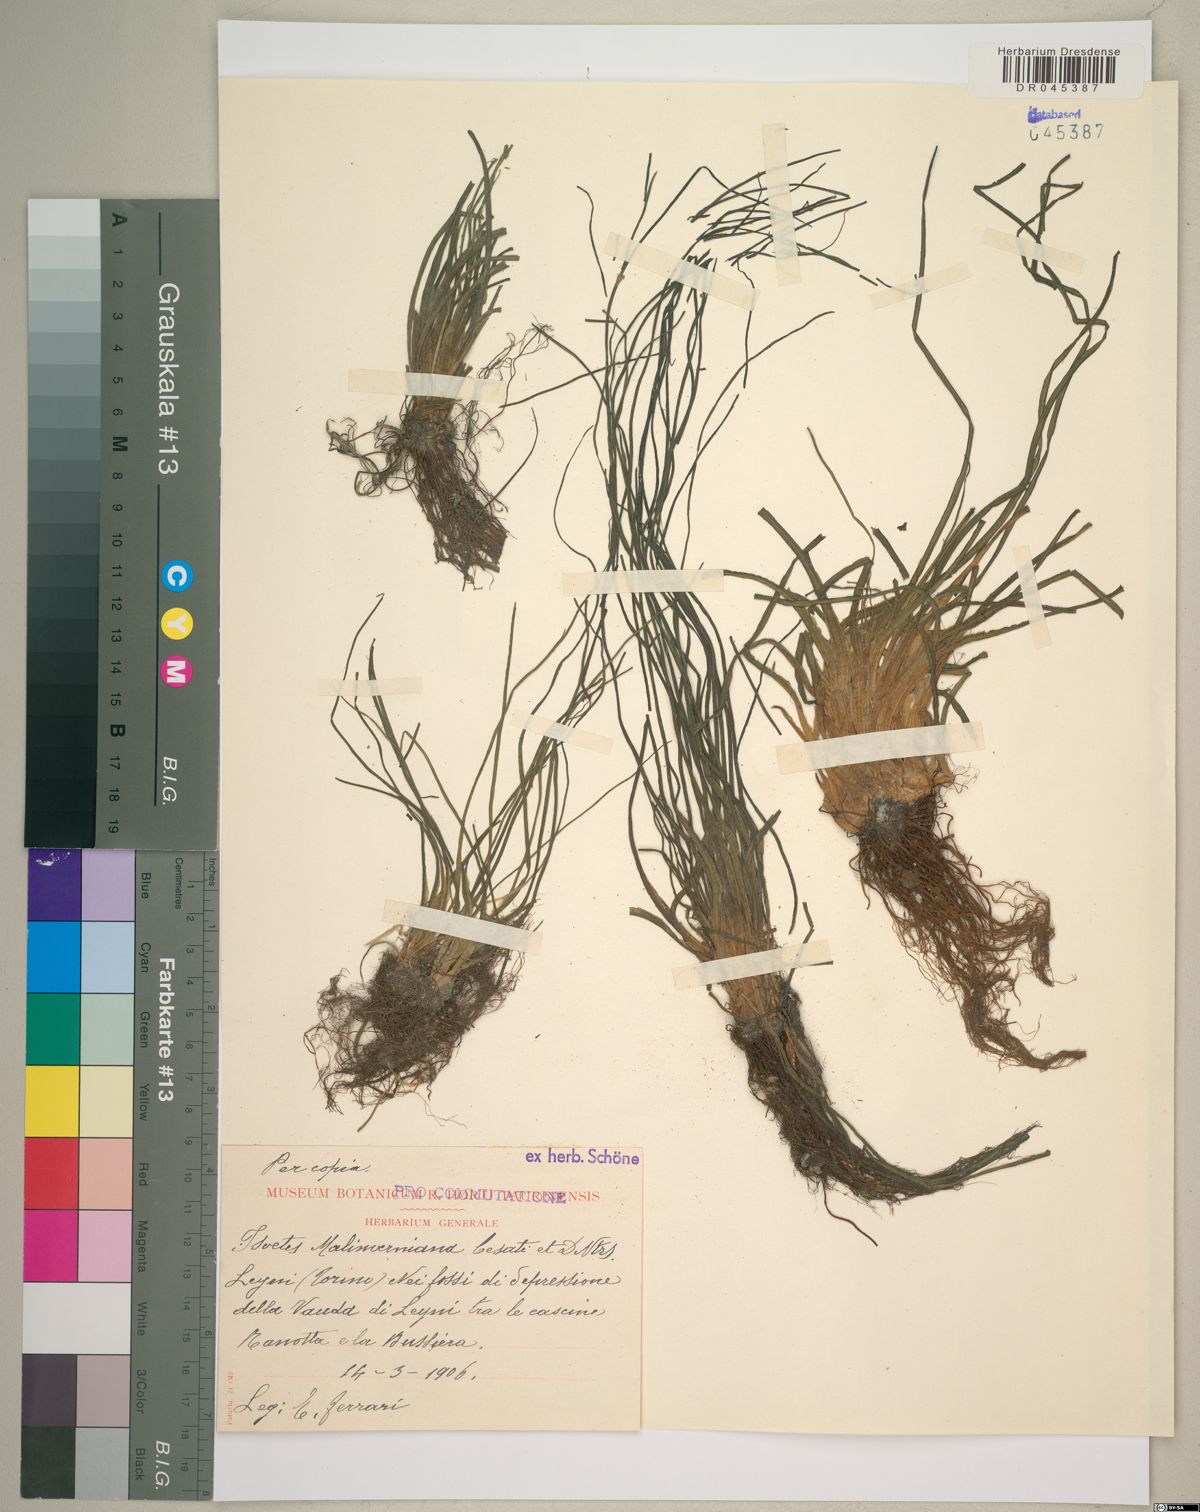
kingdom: Plantae
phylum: Tracheophyta
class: Lycopodiopsida
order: Isoetales
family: Isoetaceae
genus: Isoetes
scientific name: Isoetes malinverniana
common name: Piedmont quillwort
